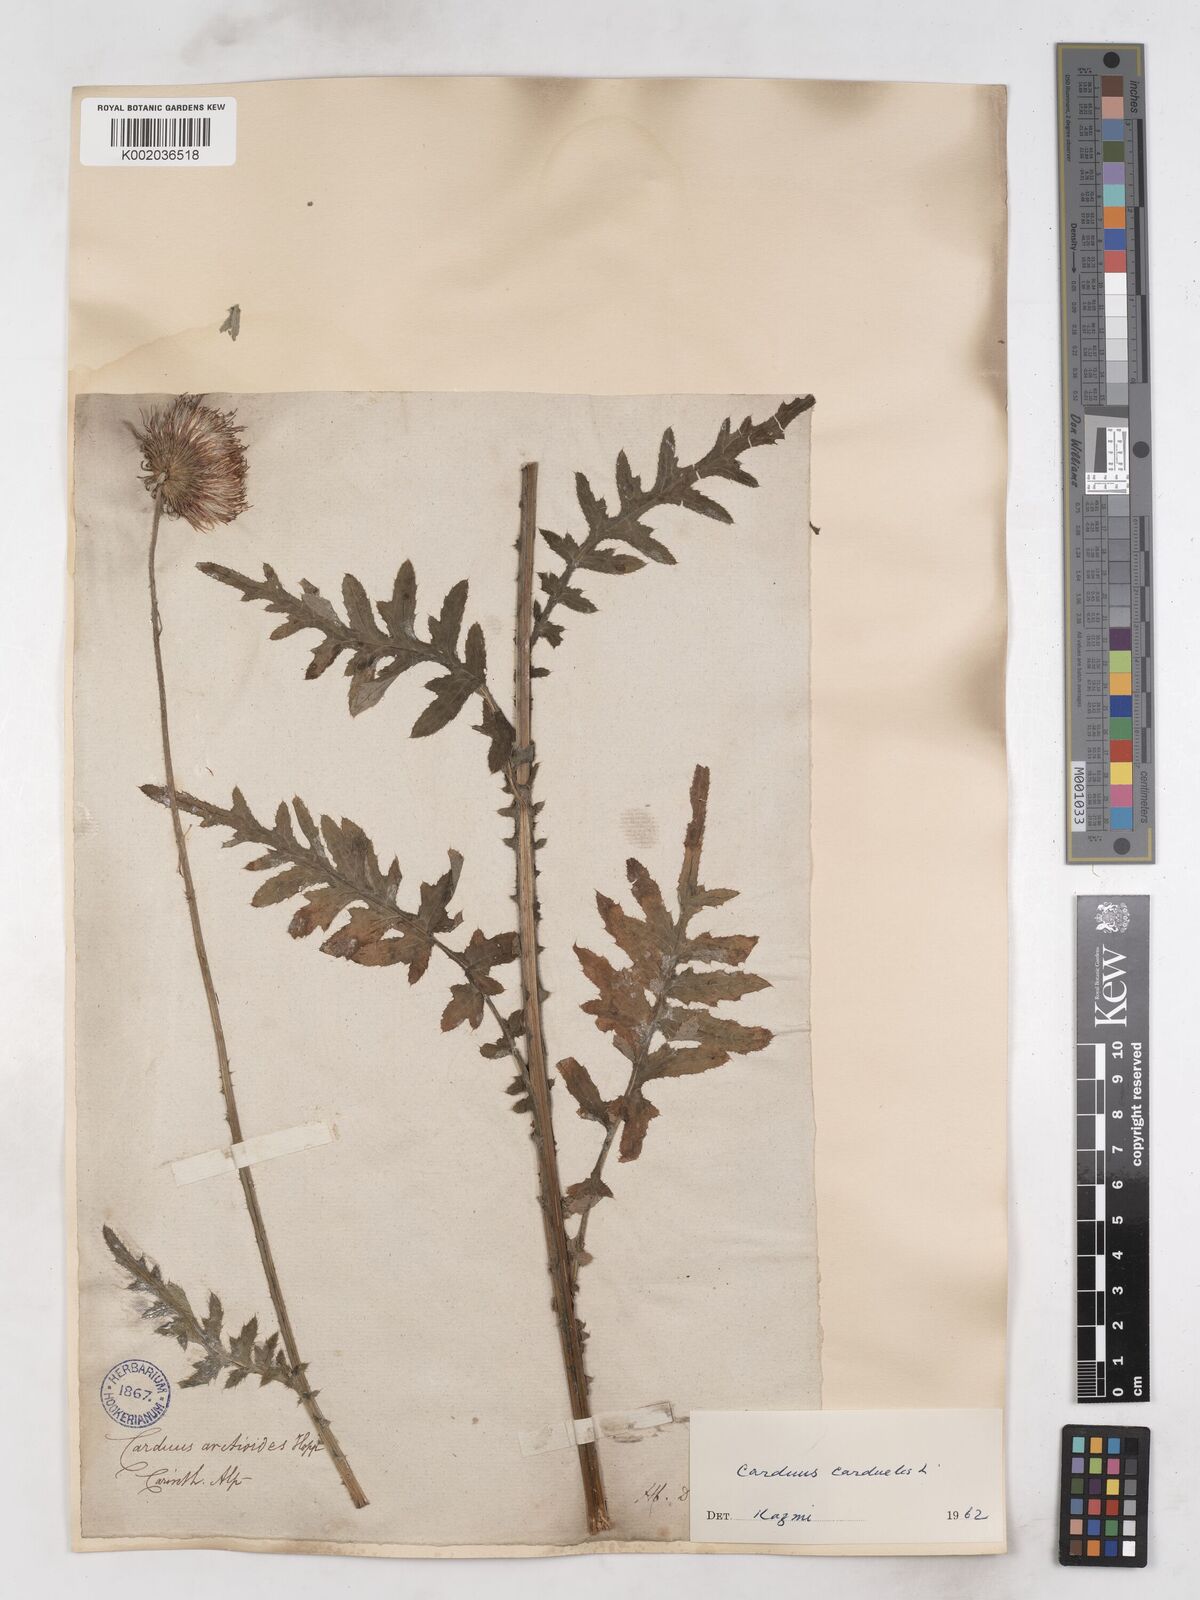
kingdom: Plantae
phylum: Tracheophyta
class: Magnoliopsida
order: Asterales
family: Asteraceae
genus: Carduus
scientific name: Carduus carduelis
